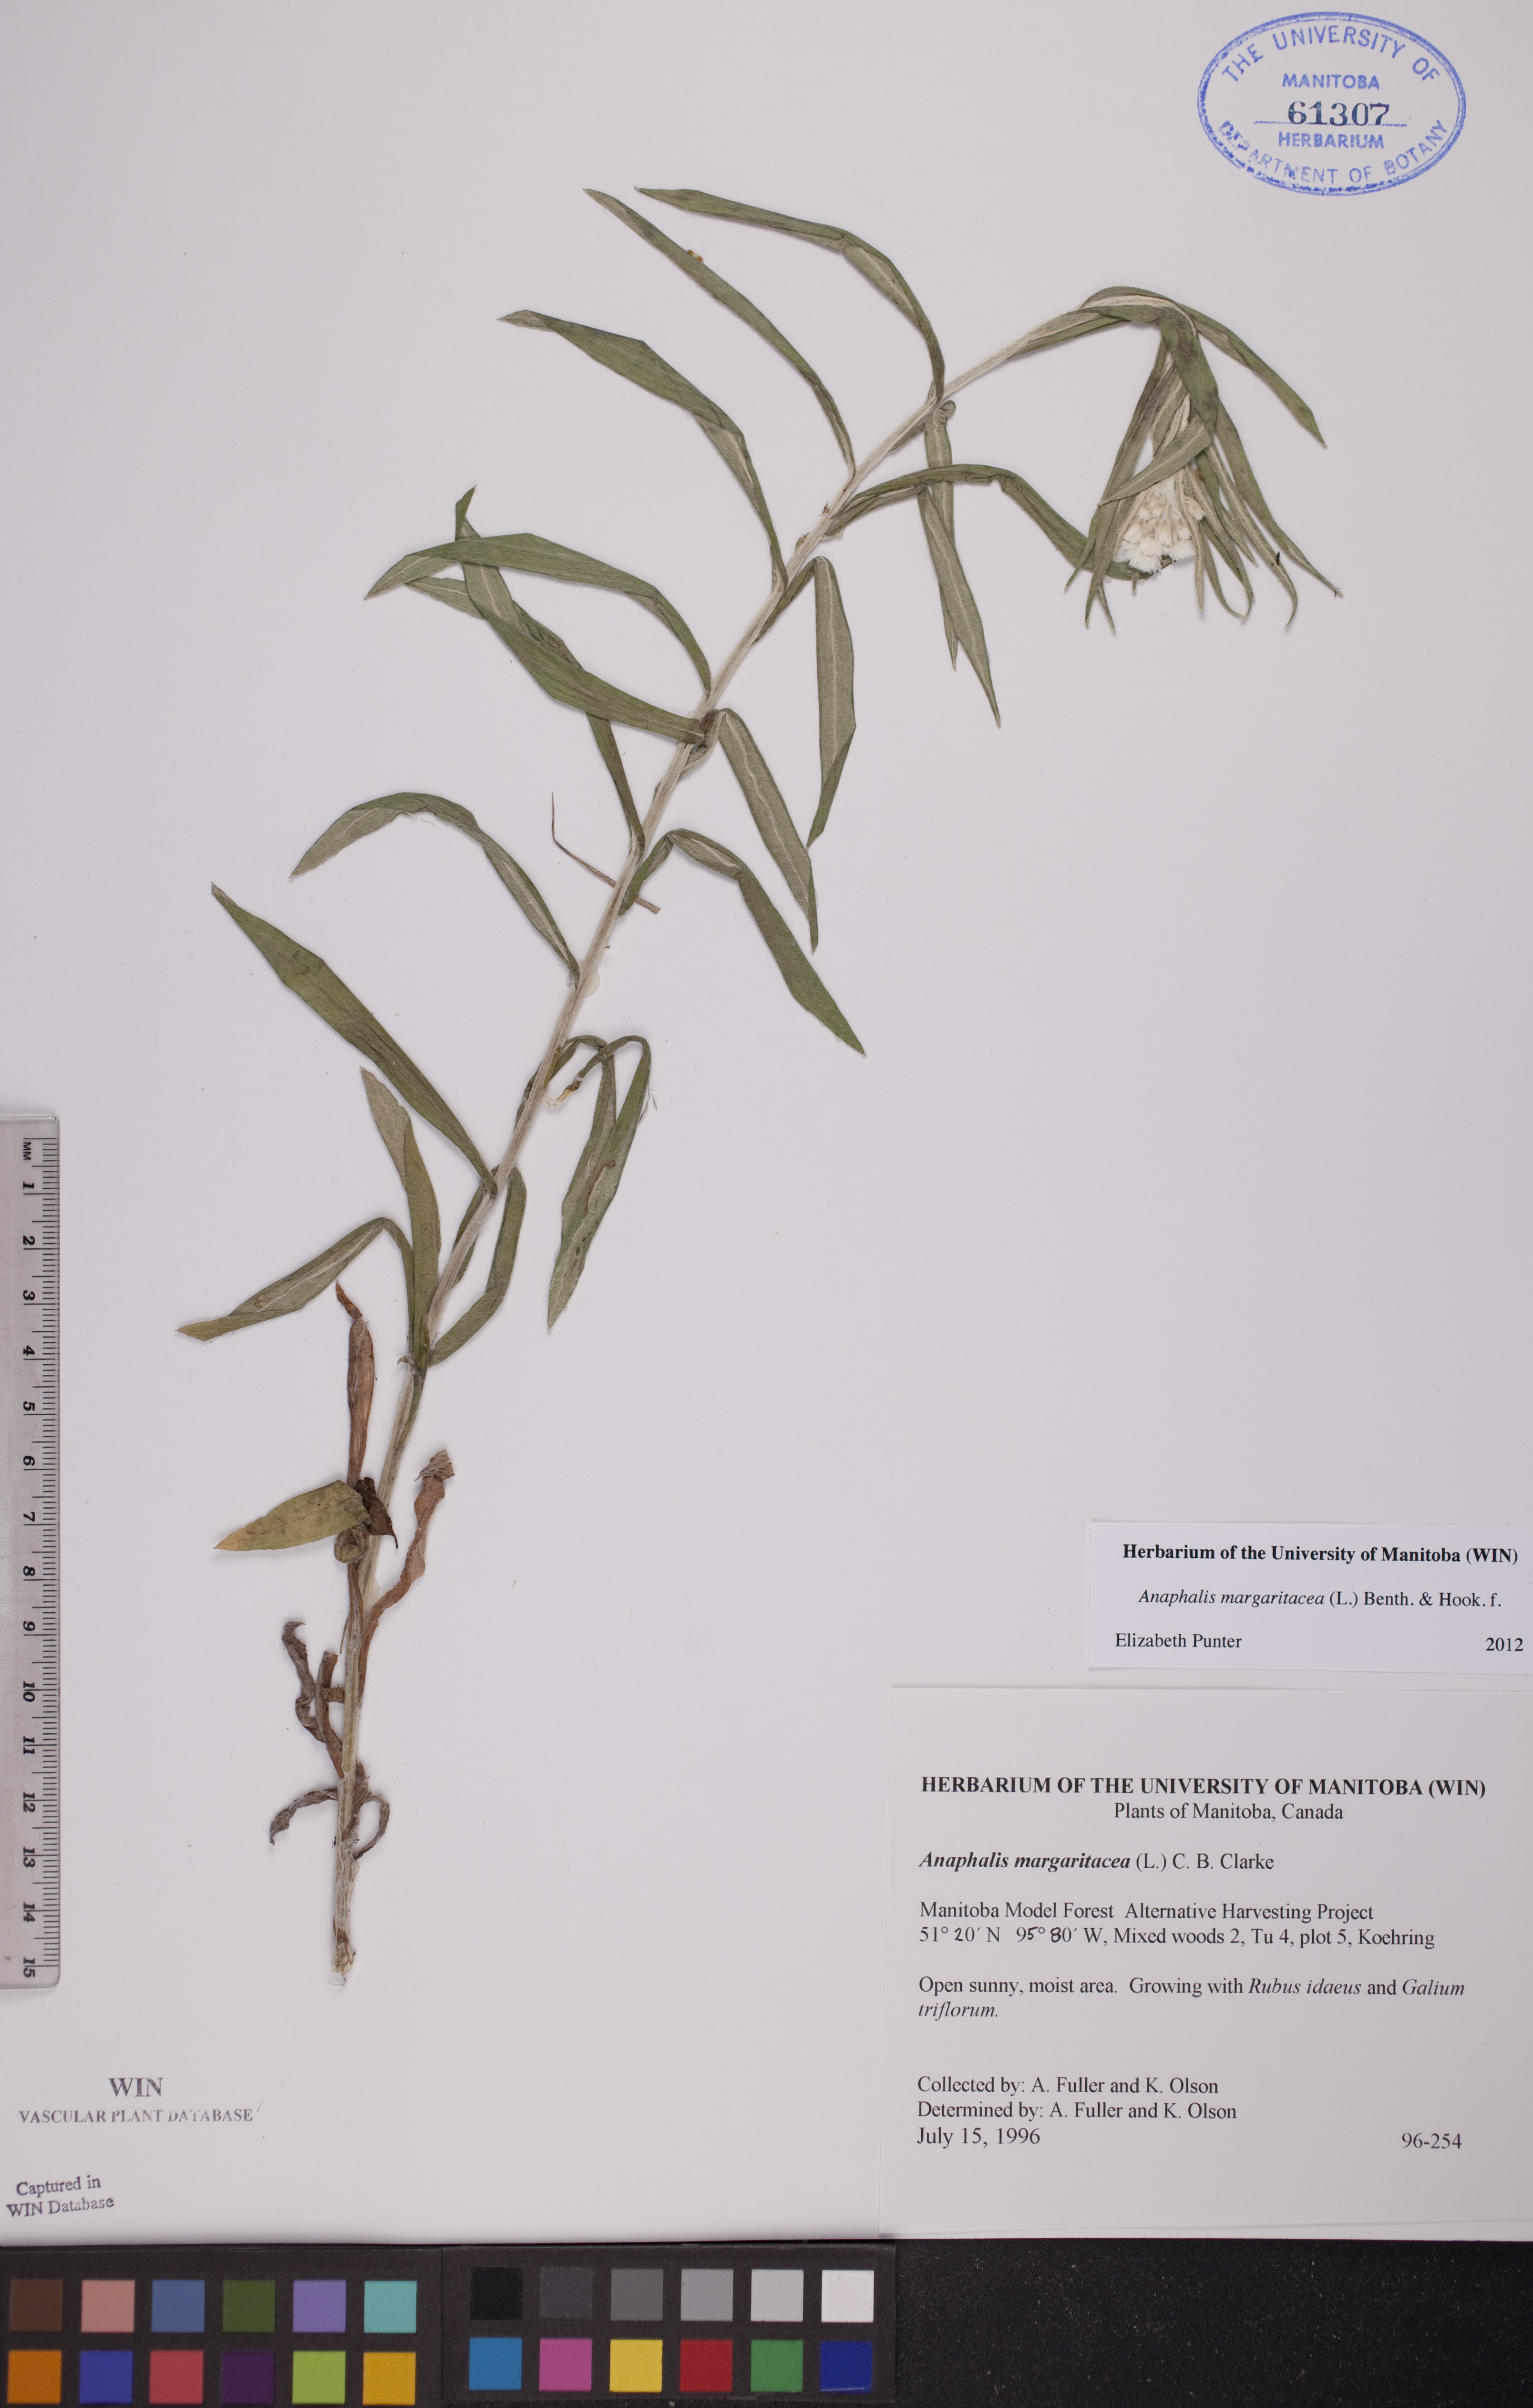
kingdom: Plantae
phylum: Tracheophyta
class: Magnoliopsida
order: Asterales
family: Asteraceae
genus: Anaphalis
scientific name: Anaphalis margaritacea
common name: Pearly everlasting
